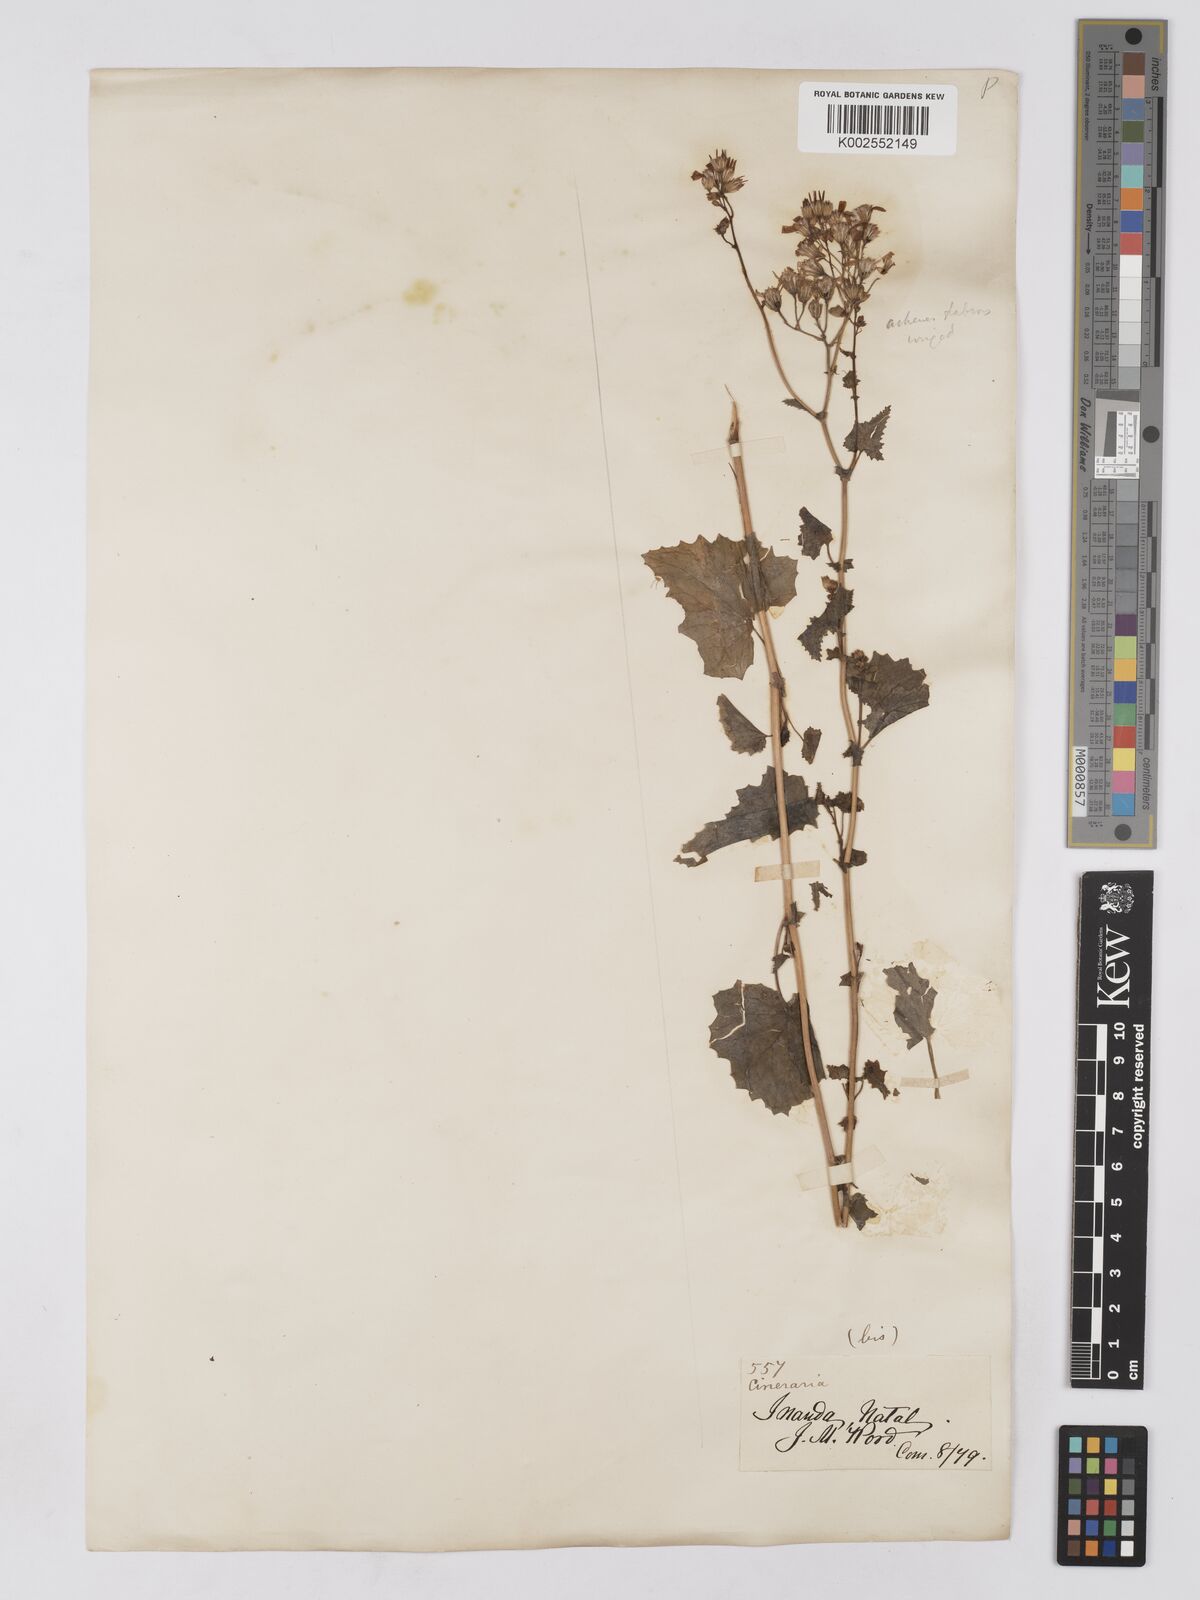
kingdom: Plantae
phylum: Tracheophyta
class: Magnoliopsida
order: Asterales
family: Asteraceae
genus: Cineraria
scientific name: Cineraria deltoidea
